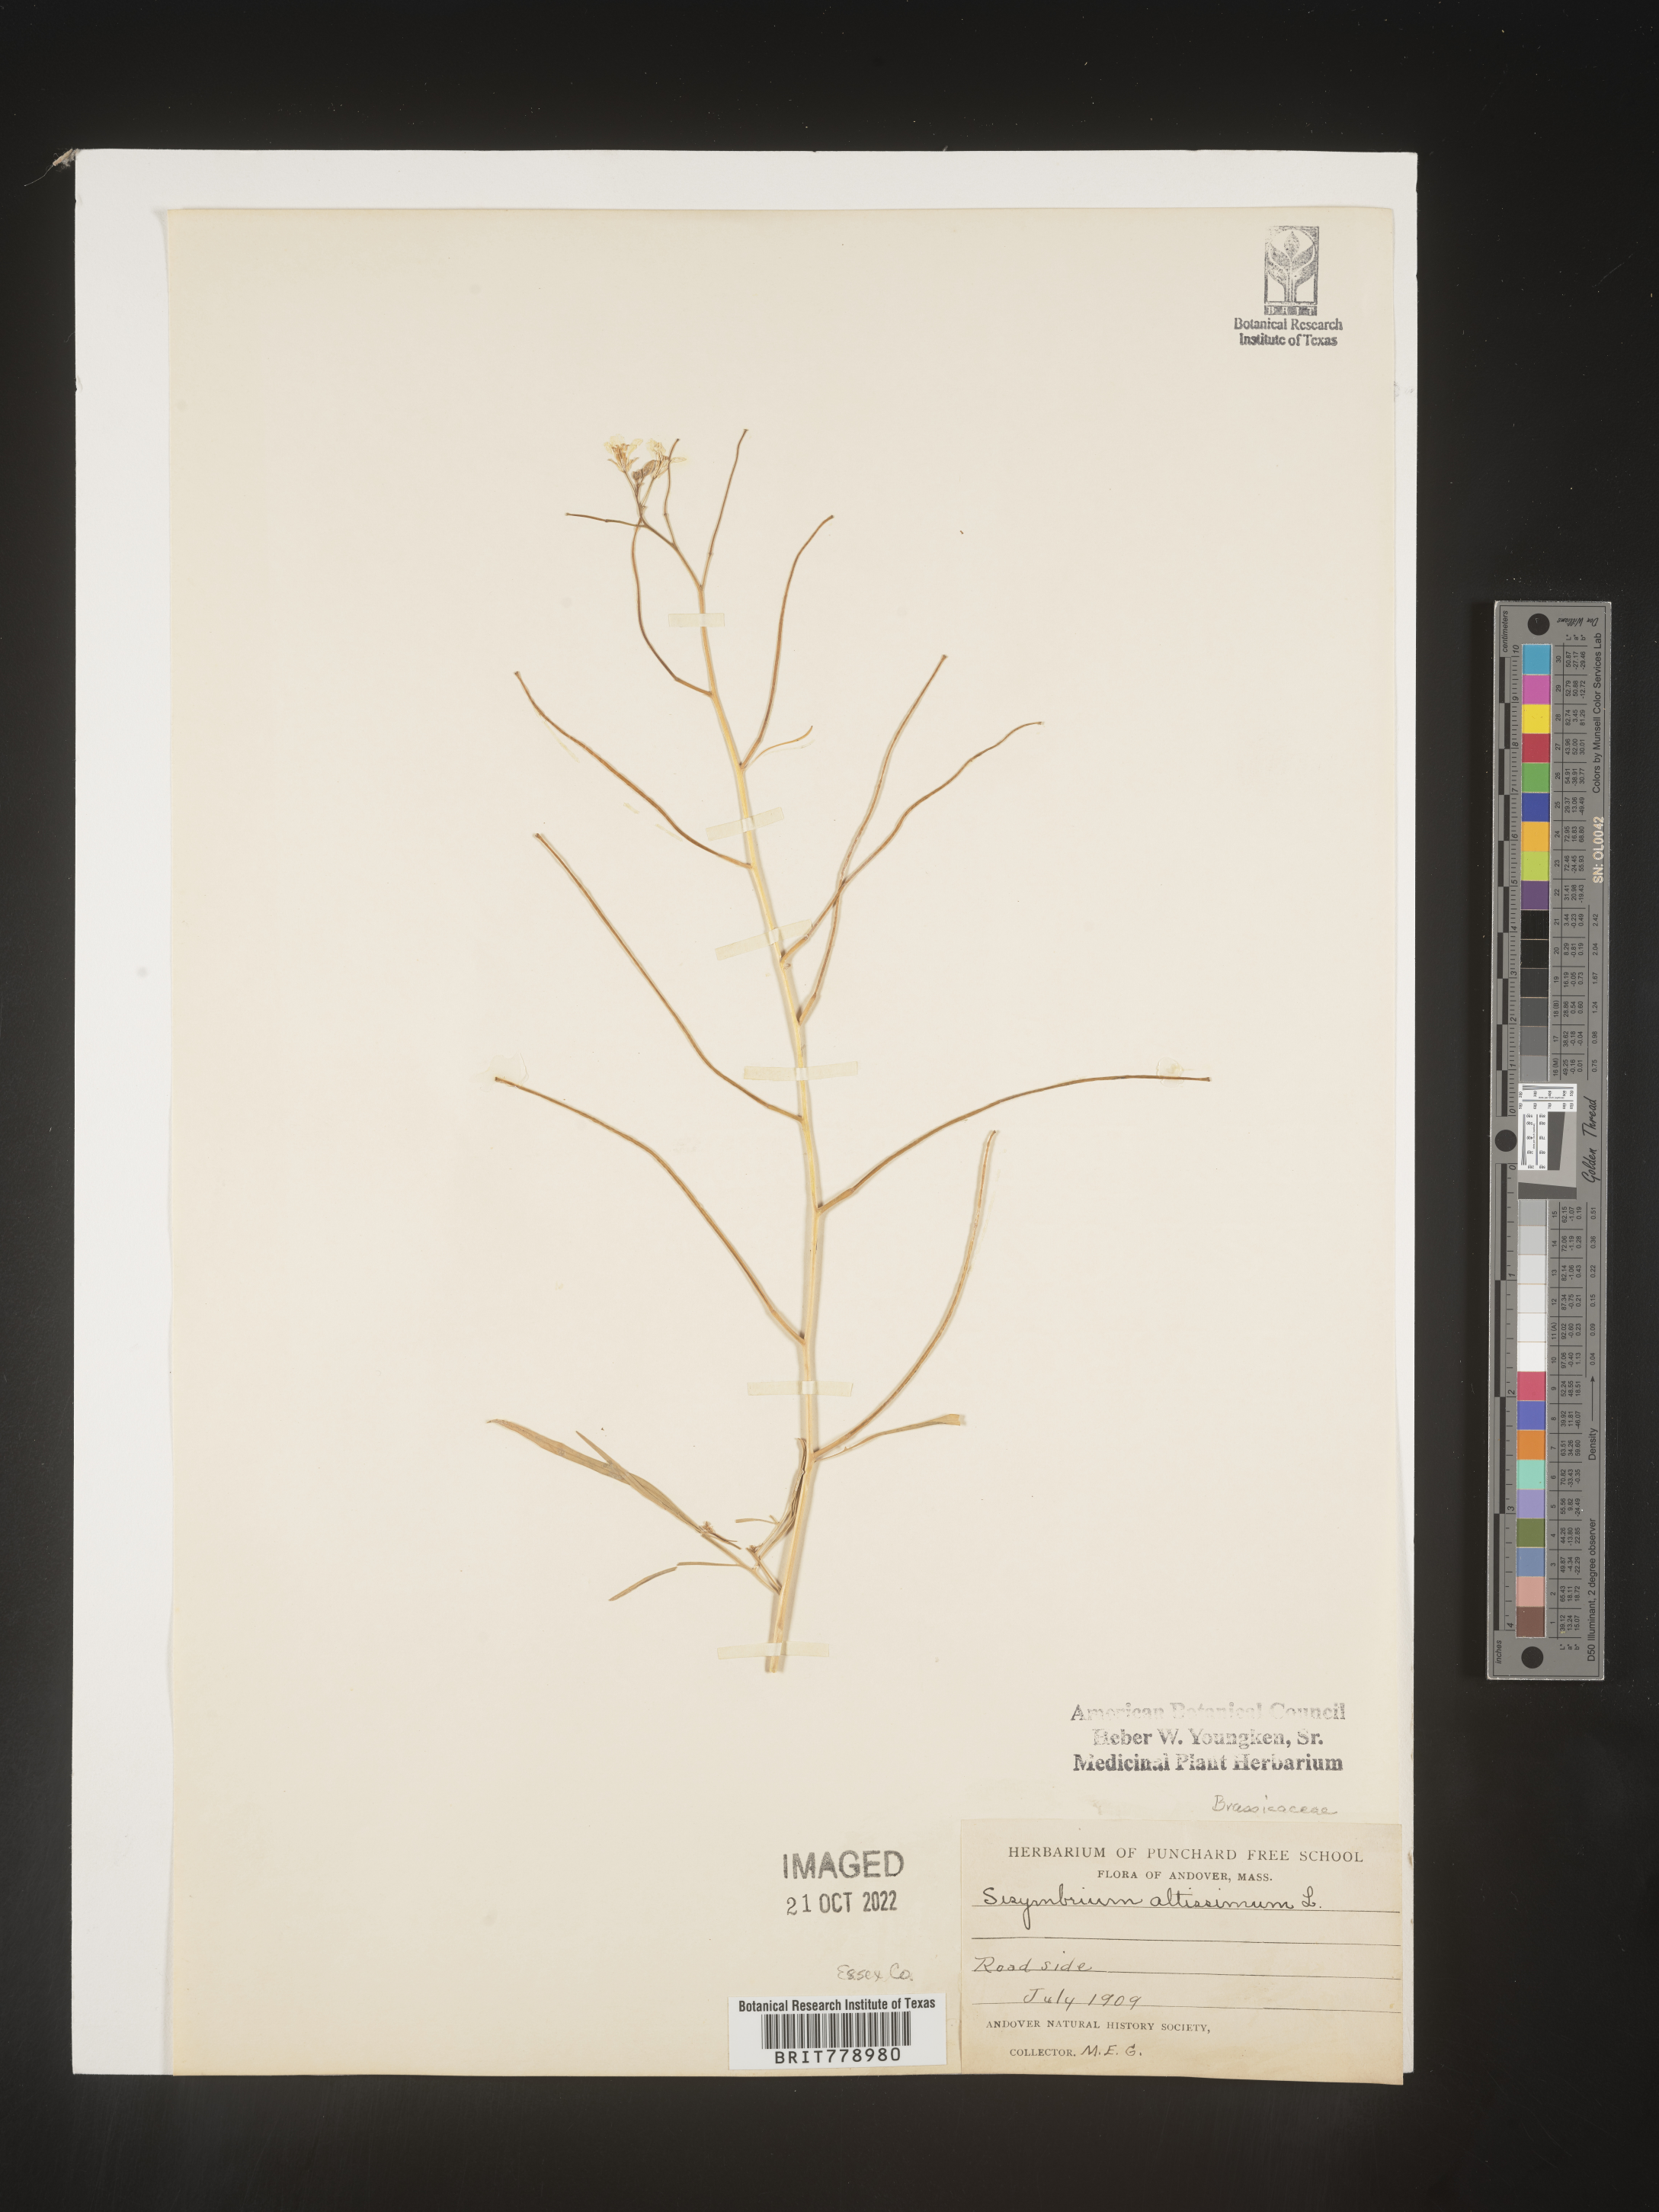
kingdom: Plantae
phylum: Tracheophyta
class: Magnoliopsida
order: Brassicales
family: Brassicaceae
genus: Sisymbrium
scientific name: Sisymbrium altissimum
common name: Tall rocket
